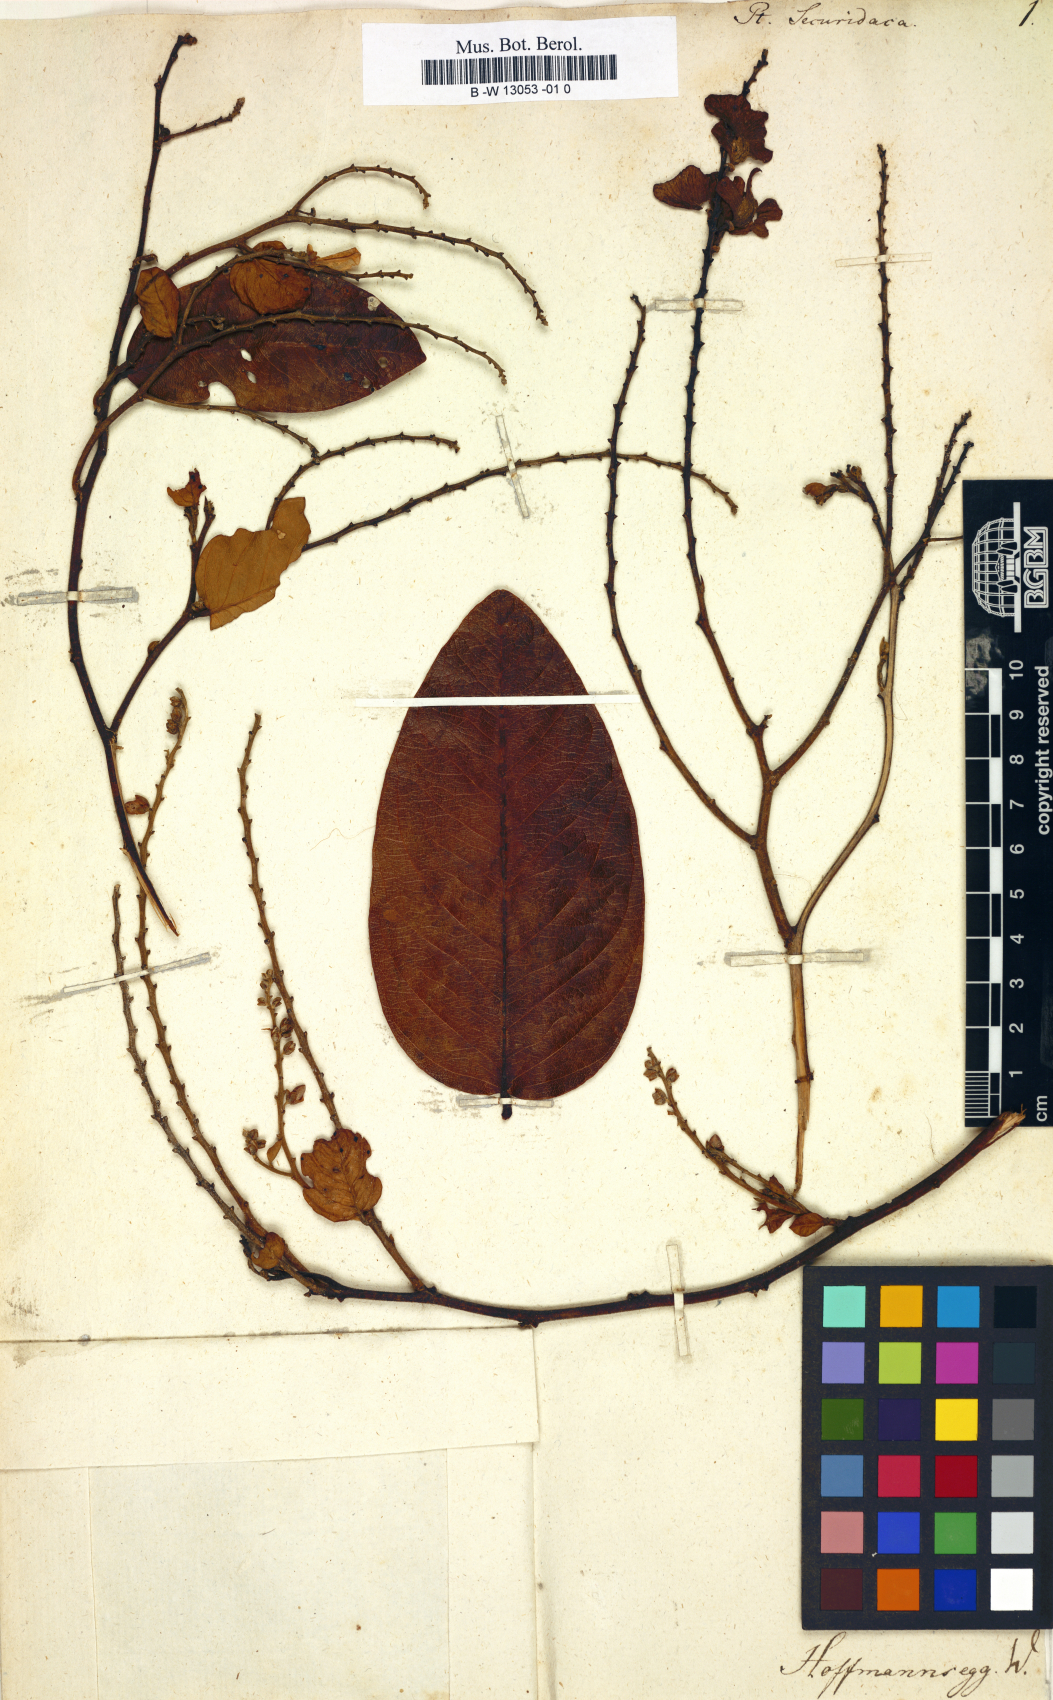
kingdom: Plantae
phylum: Tracheophyta
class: Magnoliopsida
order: Fabales
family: Fabaceae
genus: Pterolobium
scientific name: Pterolobium
